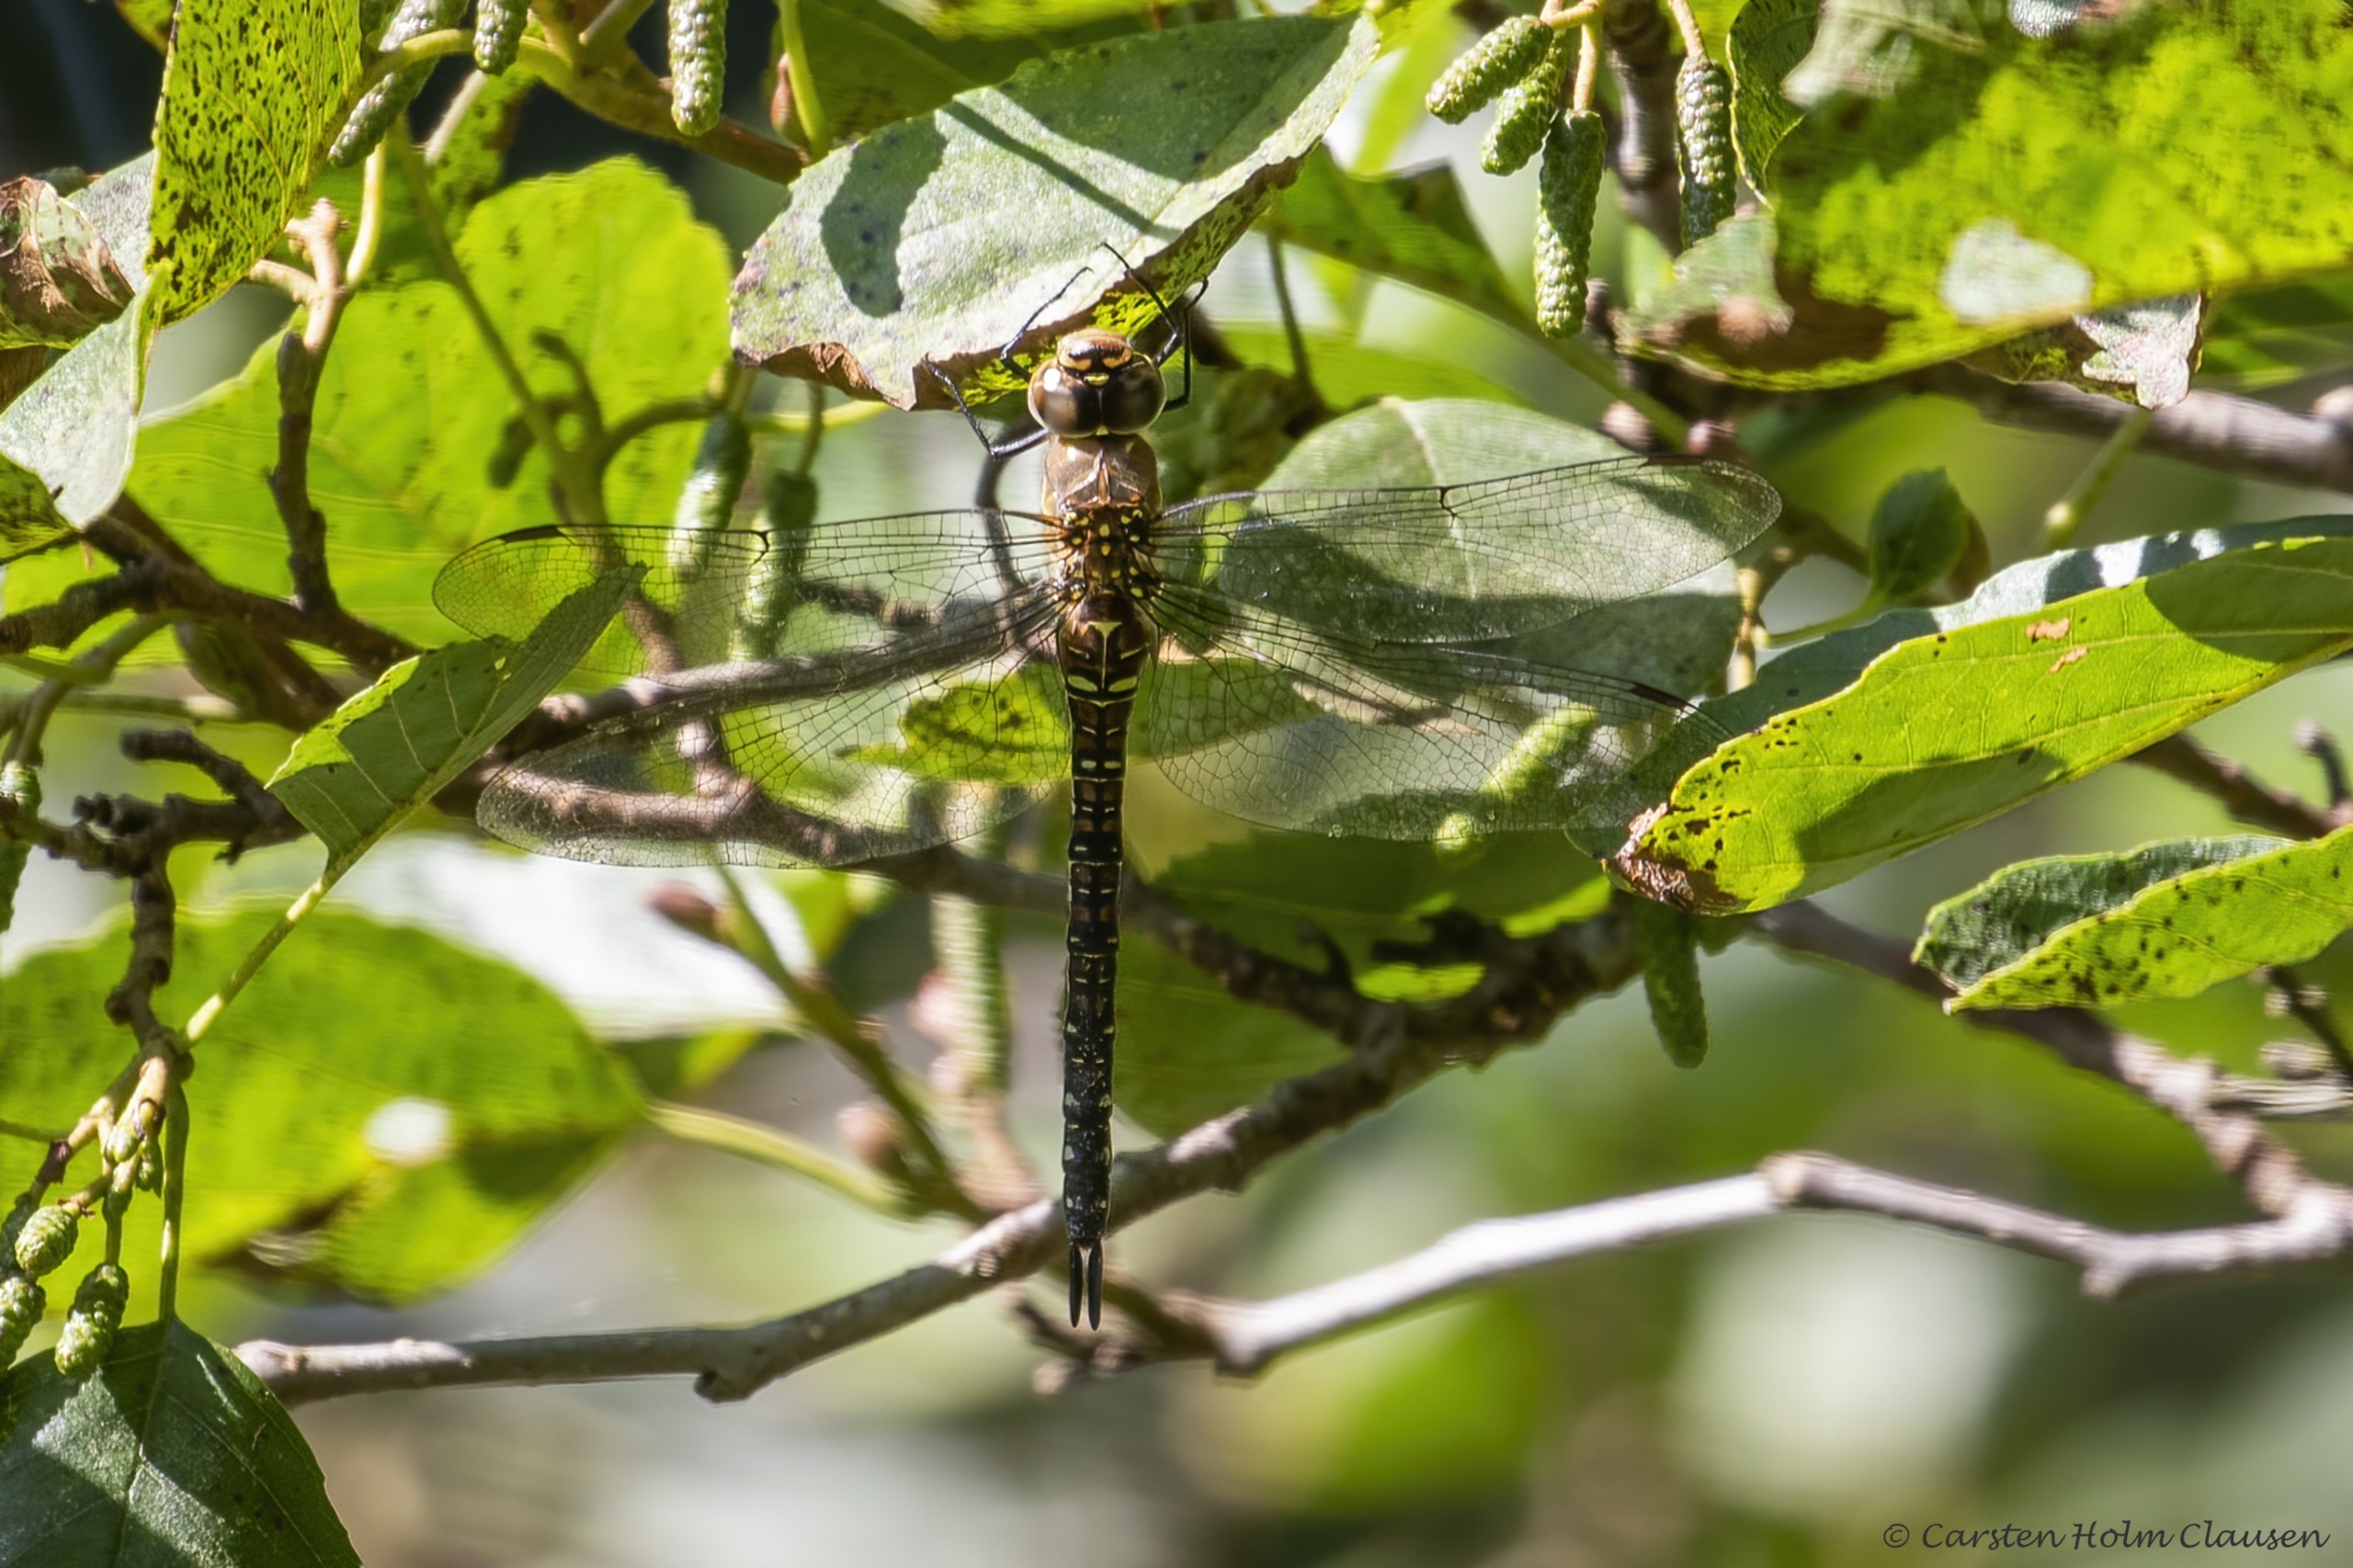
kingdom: Animalia
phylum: Arthropoda
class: Insecta
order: Odonata
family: Aeshnidae
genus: Aeshna
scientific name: Aeshna mixta
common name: Efterårs-mosaikguldsmed
